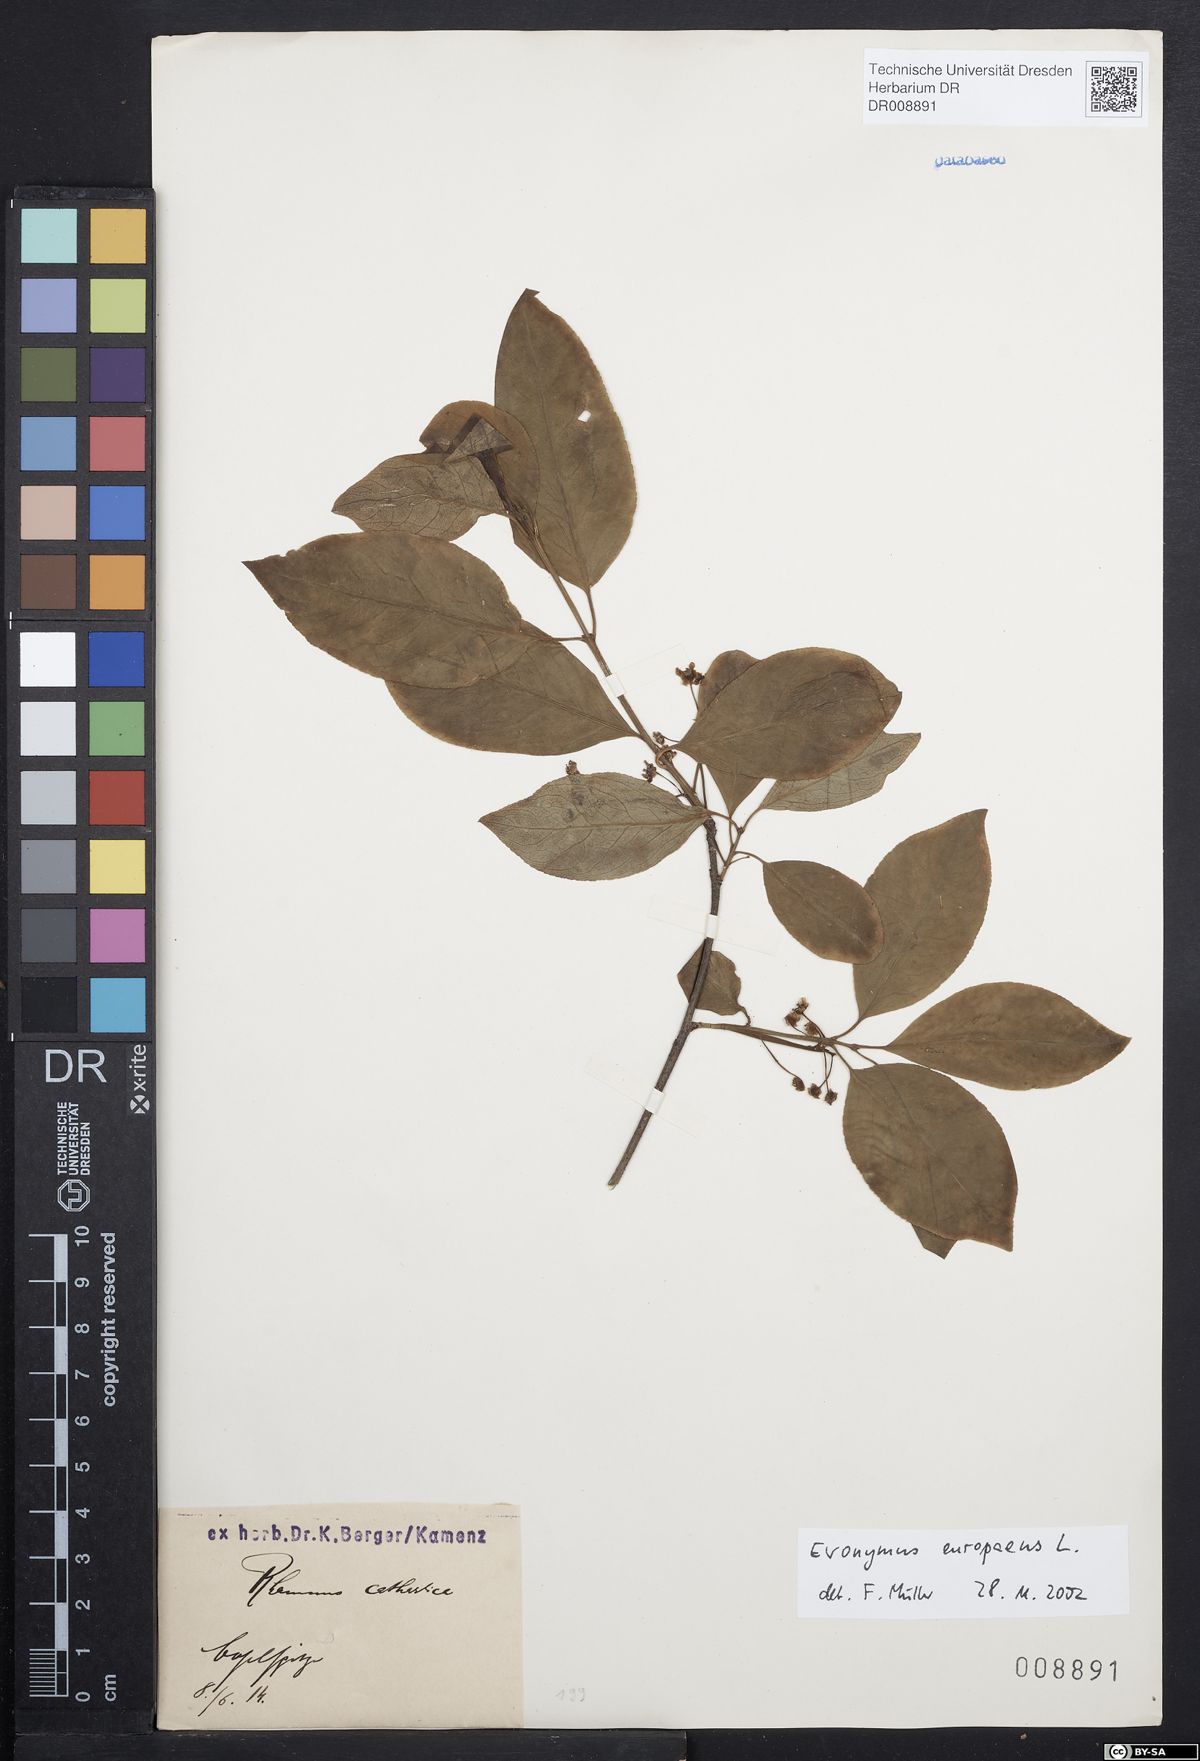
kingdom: Plantae
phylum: Tracheophyta
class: Magnoliopsida
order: Celastrales
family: Celastraceae
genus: Euonymus
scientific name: Euonymus europaeus
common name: Spindle
